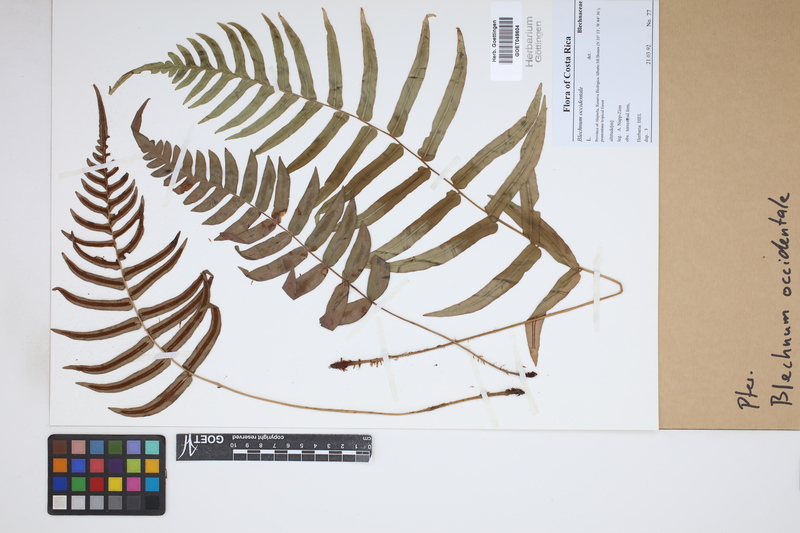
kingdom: Plantae
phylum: Tracheophyta
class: Polypodiopsida
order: Polypodiales
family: Blechnaceae
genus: Blechnum
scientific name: Blechnum occidentale
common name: Hammock fern
